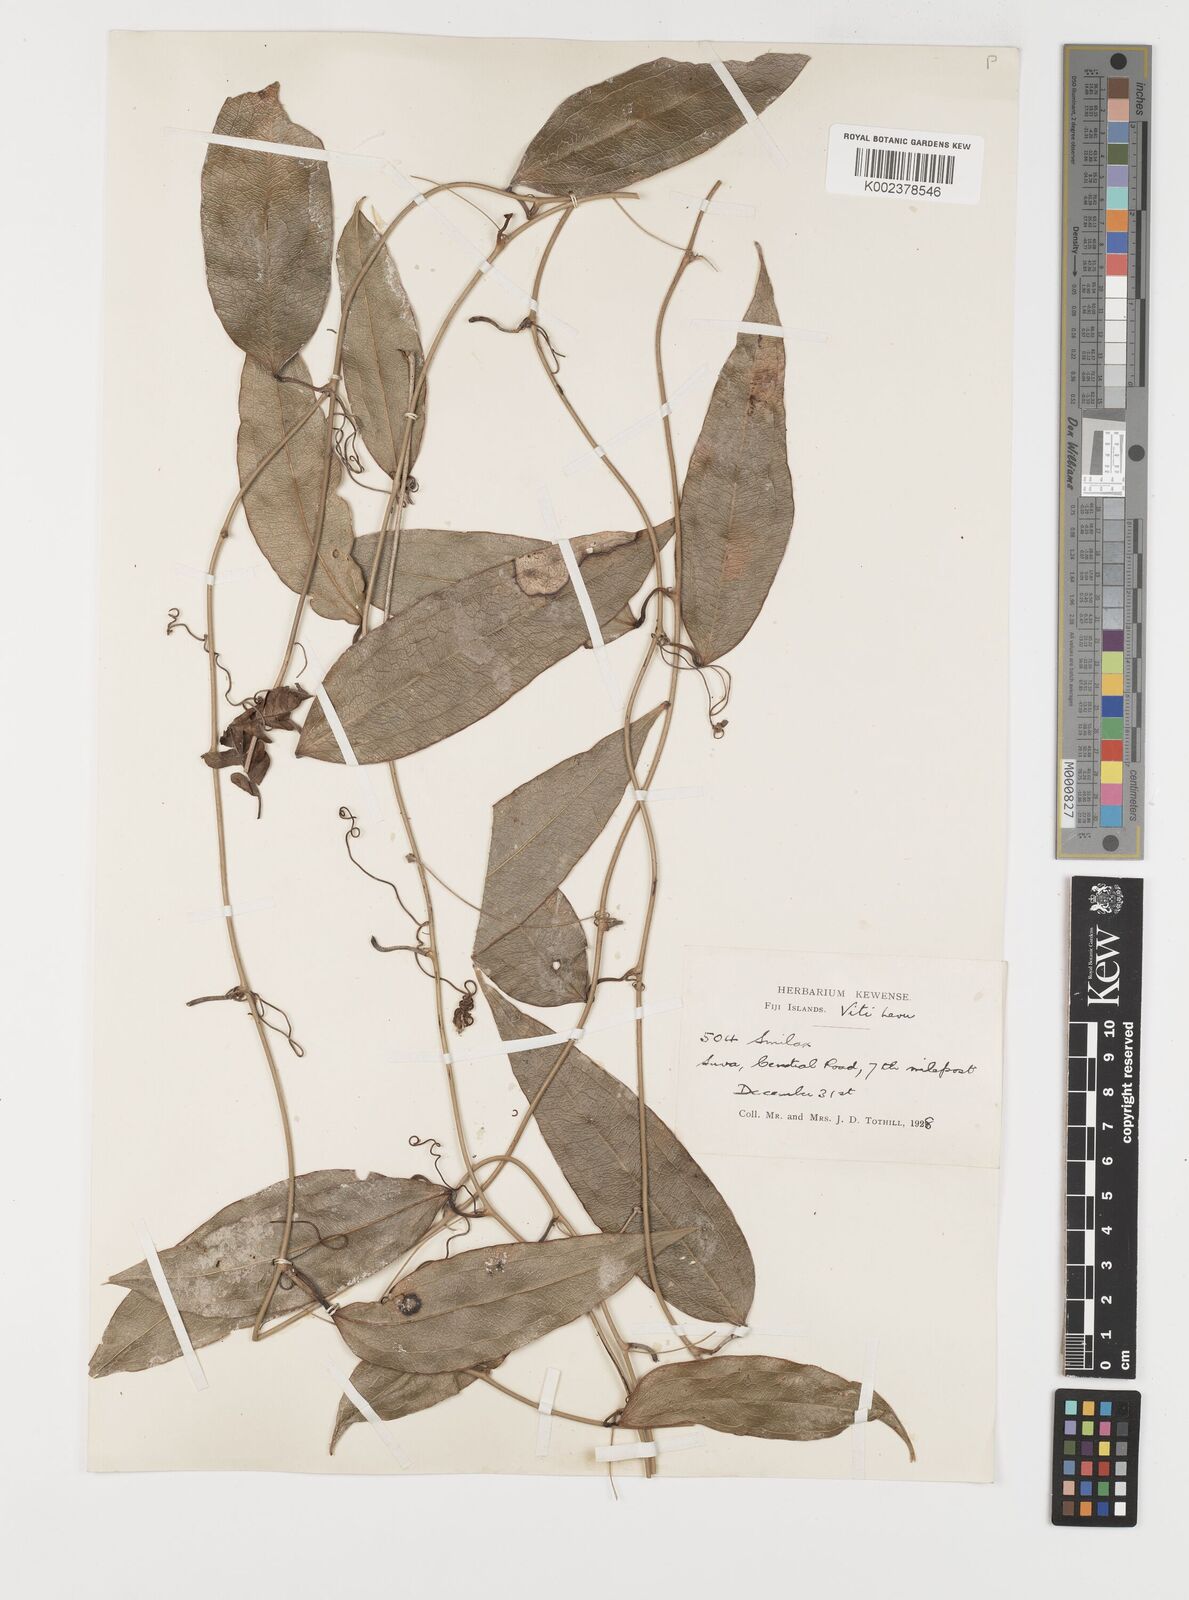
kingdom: Plantae
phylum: Tracheophyta
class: Liliopsida
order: Liliales
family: Smilacaceae
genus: Smilax
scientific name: Smilax
